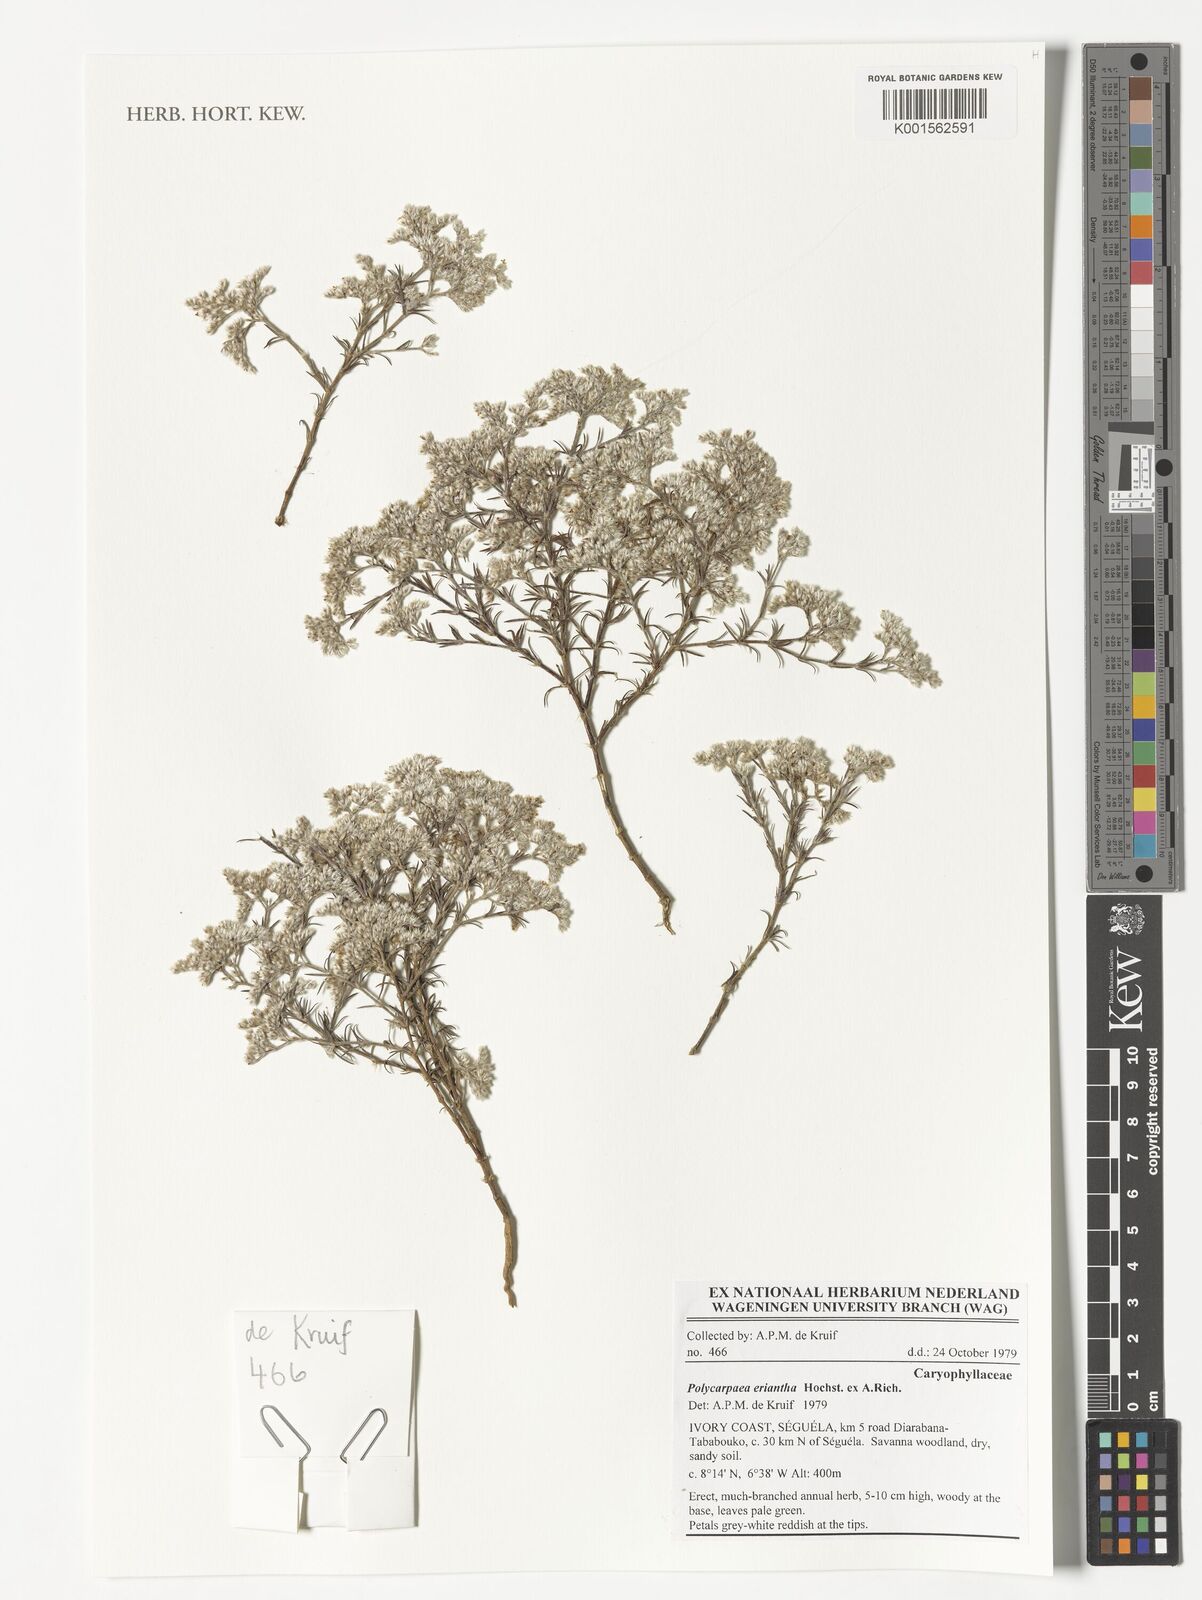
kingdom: Plantae
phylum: Tracheophyta
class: Magnoliopsida
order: Caryophyllales
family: Caryophyllaceae
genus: Polycarpaea
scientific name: Polycarpaea eriantha
